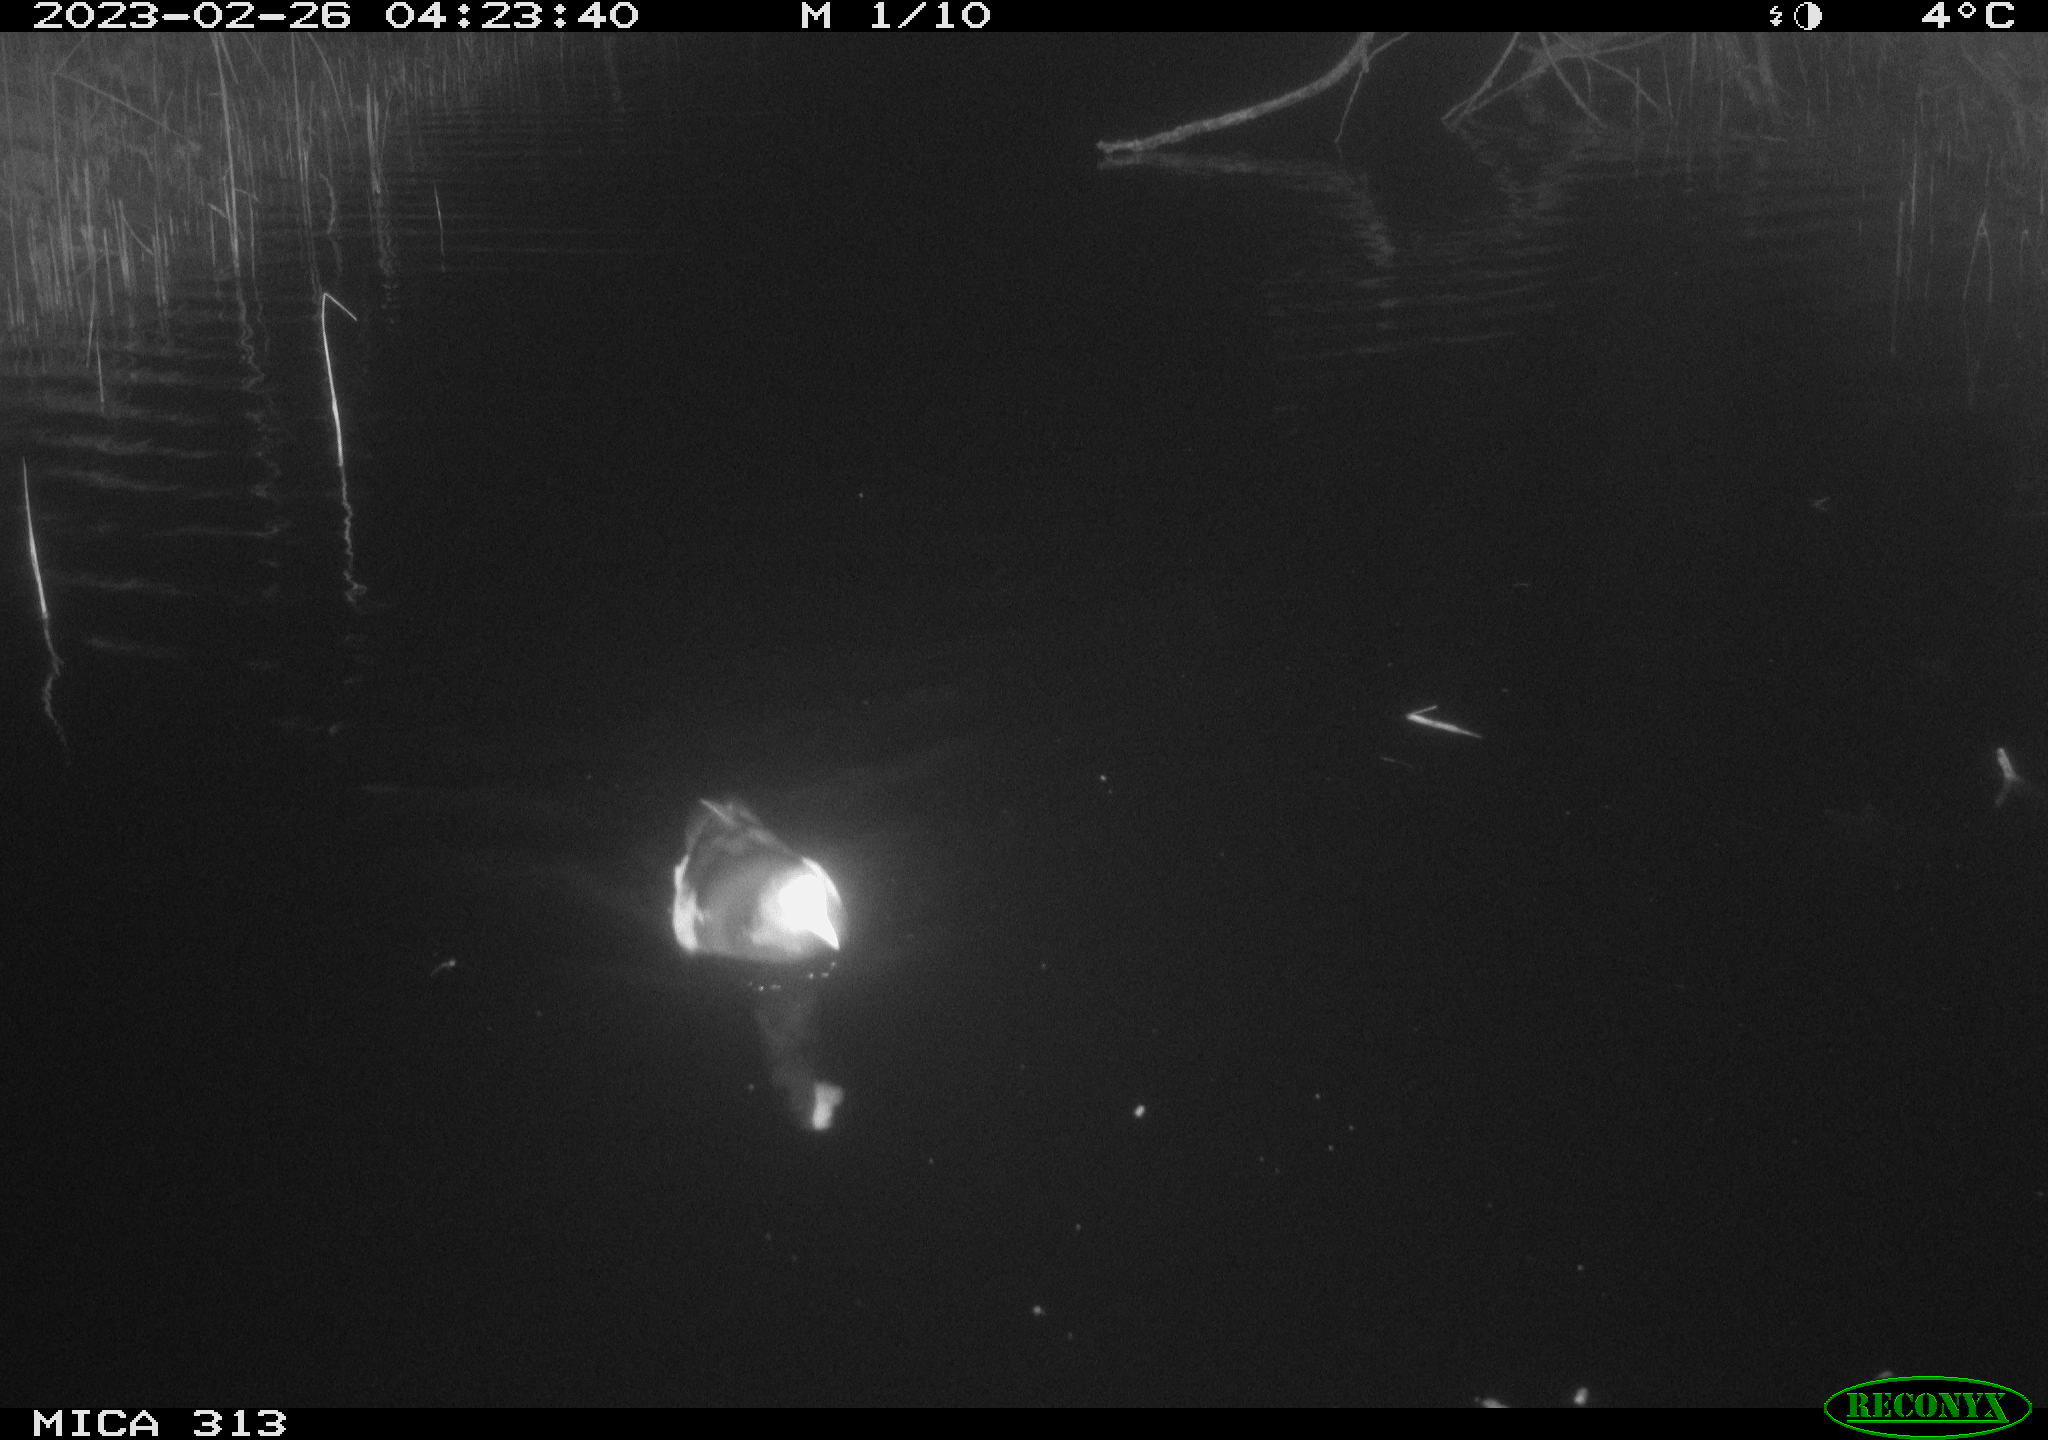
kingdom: Animalia
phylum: Chordata
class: Aves
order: Anseriformes
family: Anatidae
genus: Anas
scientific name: Anas
